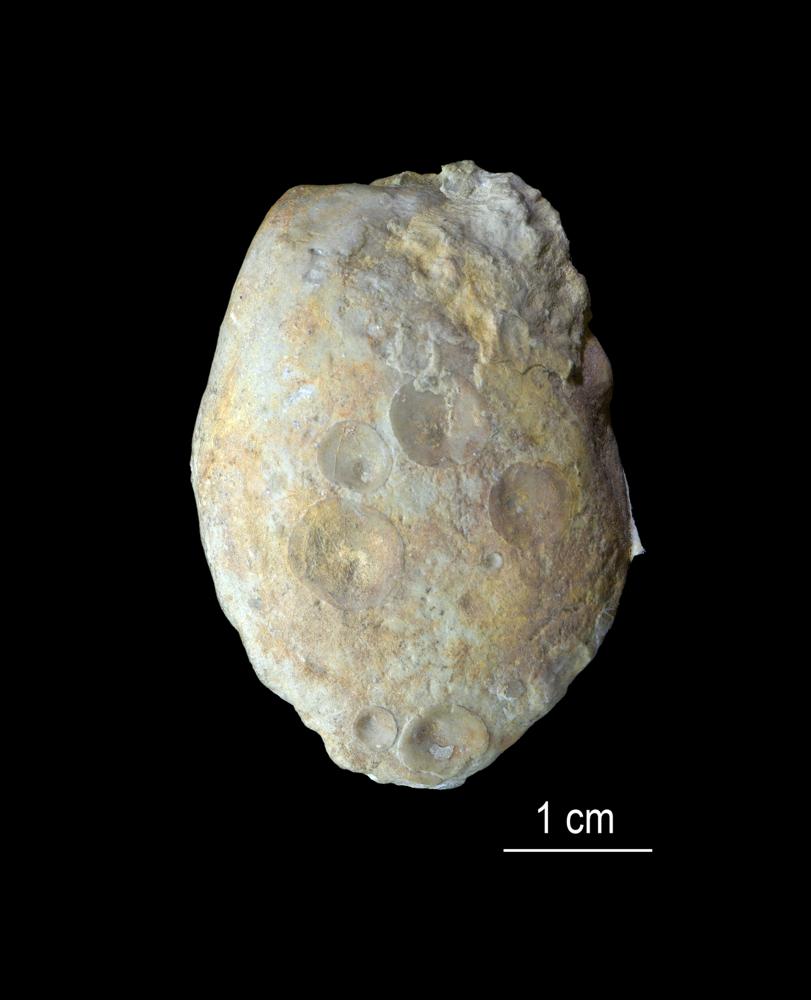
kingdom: Animalia
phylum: Brachiopoda
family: Kutorginidae
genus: Rustella
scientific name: Rustella
